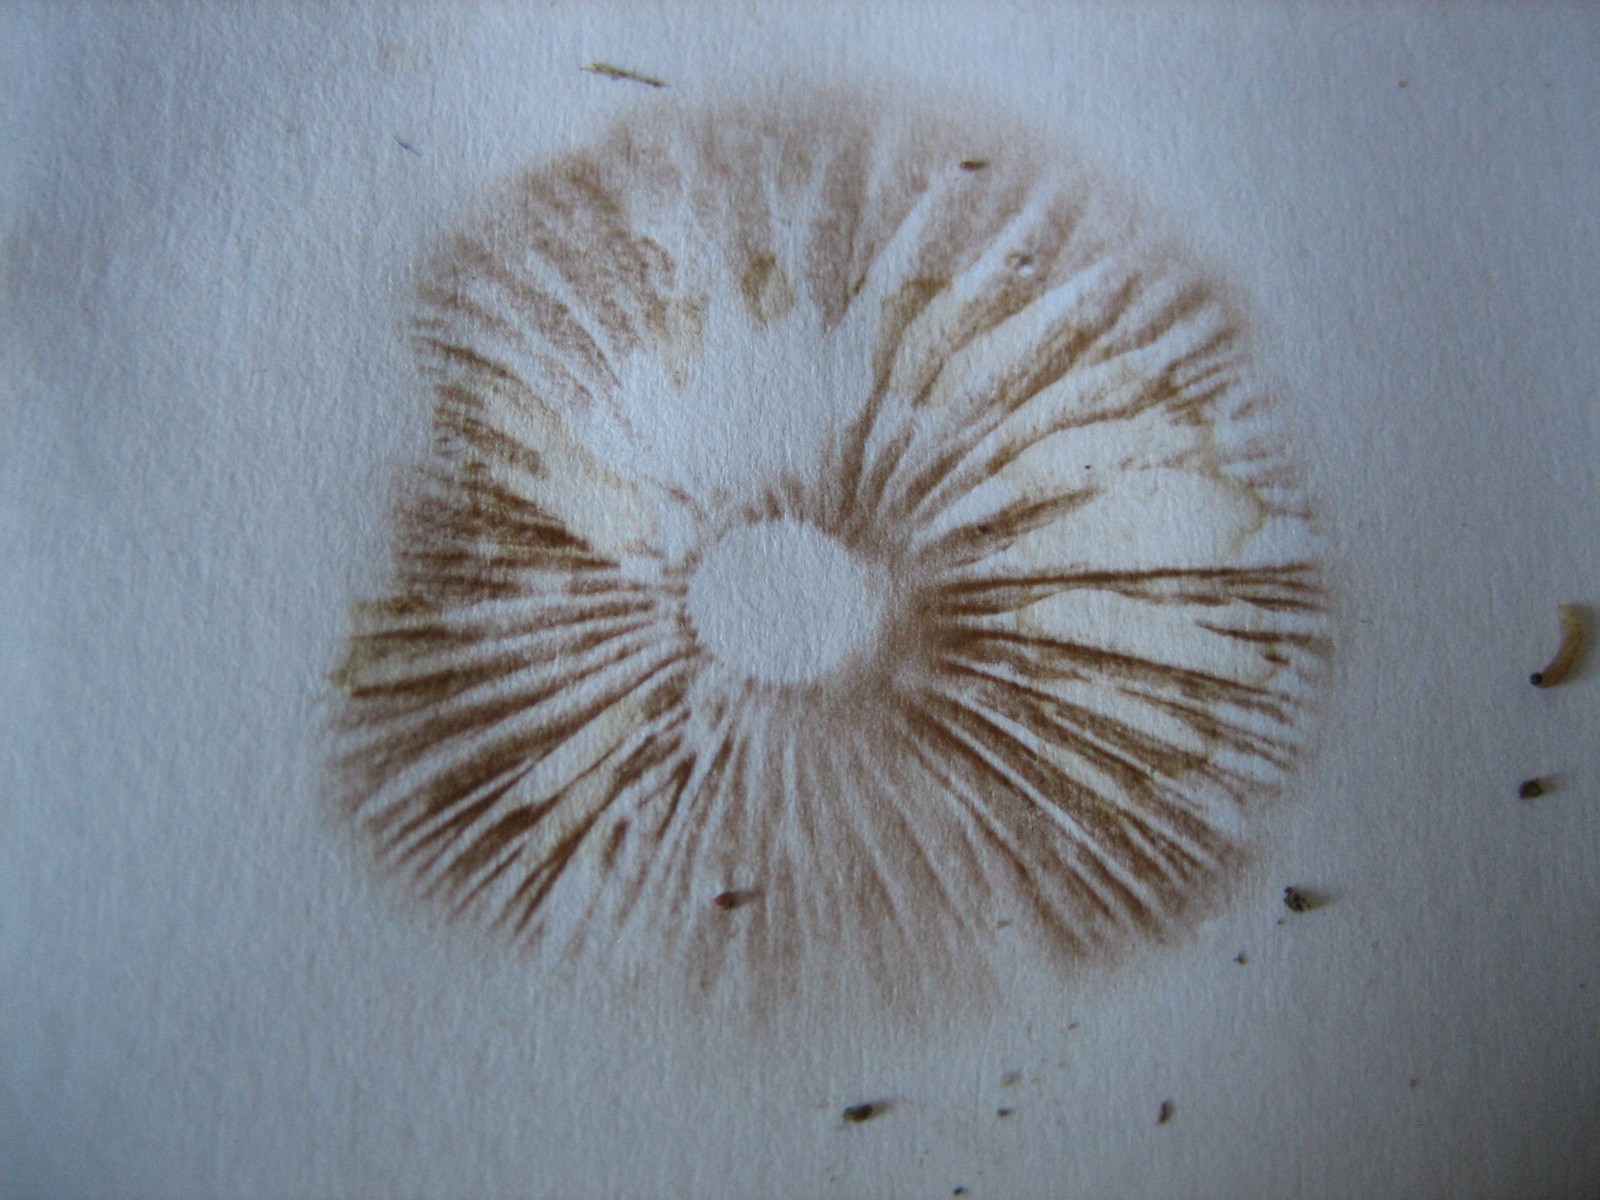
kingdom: Fungi
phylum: Basidiomycota
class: Agaricomycetes
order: Agaricales
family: Cortinariaceae
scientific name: Cortinariaceae
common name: slørhatfamilien
